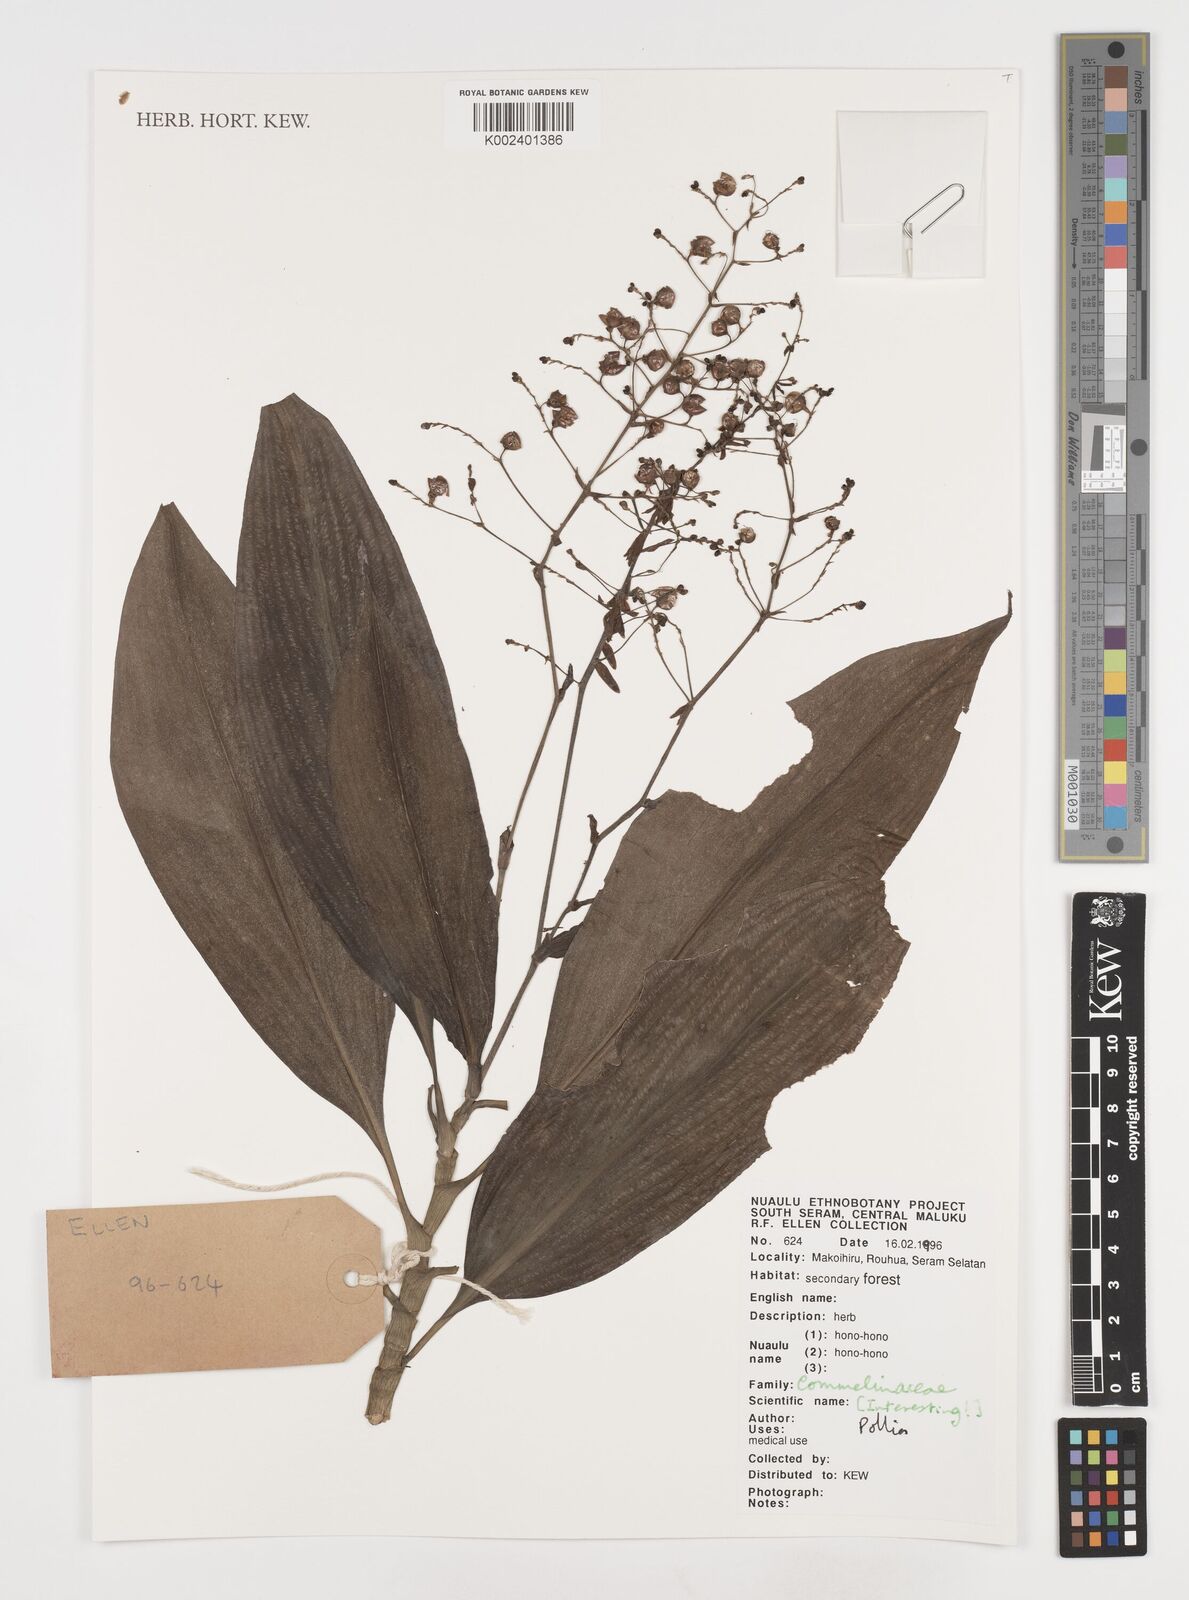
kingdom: Plantae
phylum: Tracheophyta
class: Liliopsida
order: Commelinales
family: Commelinaceae
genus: Pollia
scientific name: Pollia
